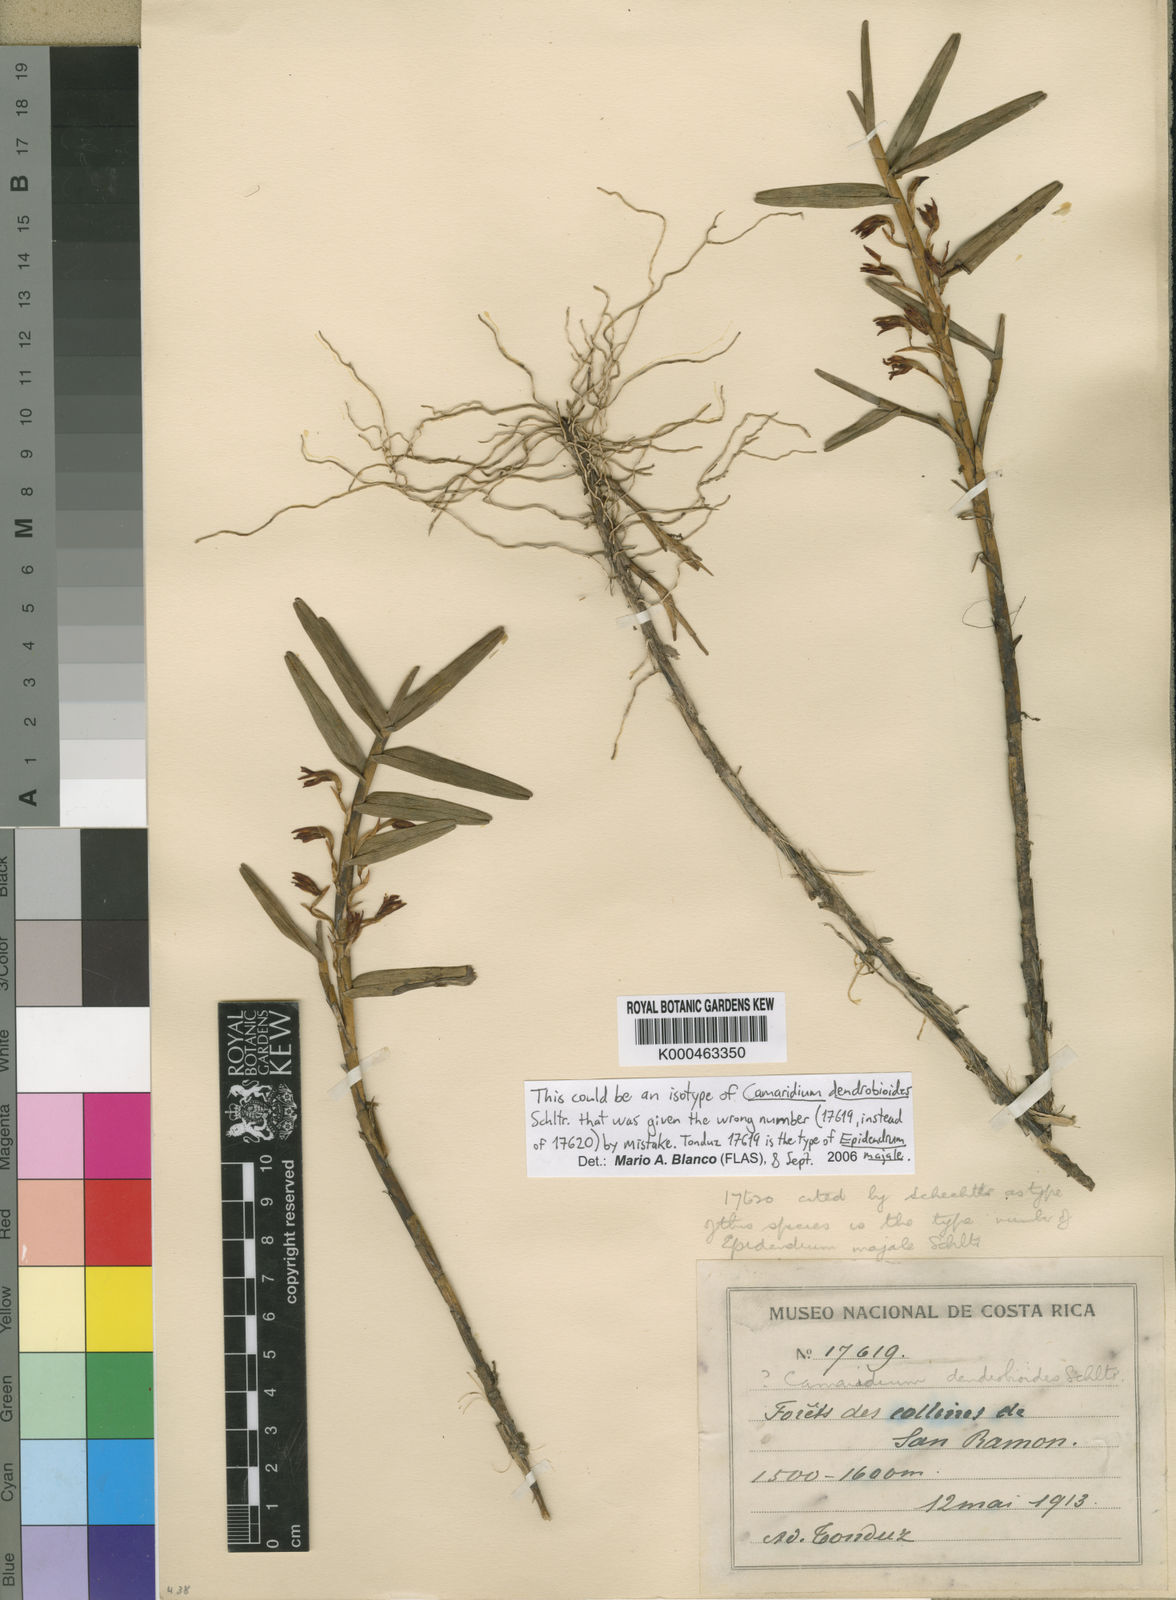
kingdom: Plantae
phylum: Tracheophyta
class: Liliopsida
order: Asparagales
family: Orchidaceae
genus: Maxillaria
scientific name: Maxillaria dendrobioides
